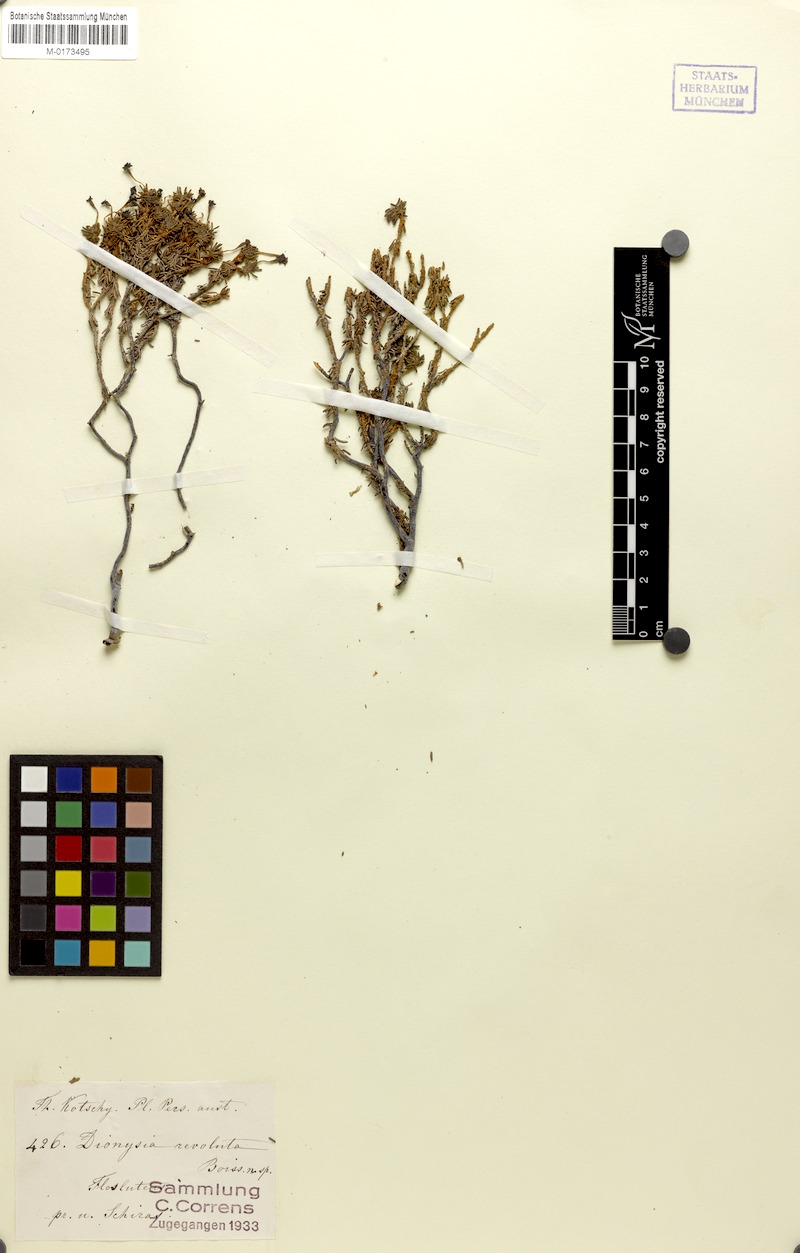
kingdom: Plantae
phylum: Tracheophyta
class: Magnoliopsida
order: Ericales
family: Primulaceae
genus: Dionysia
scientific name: Dionysia revoluta
